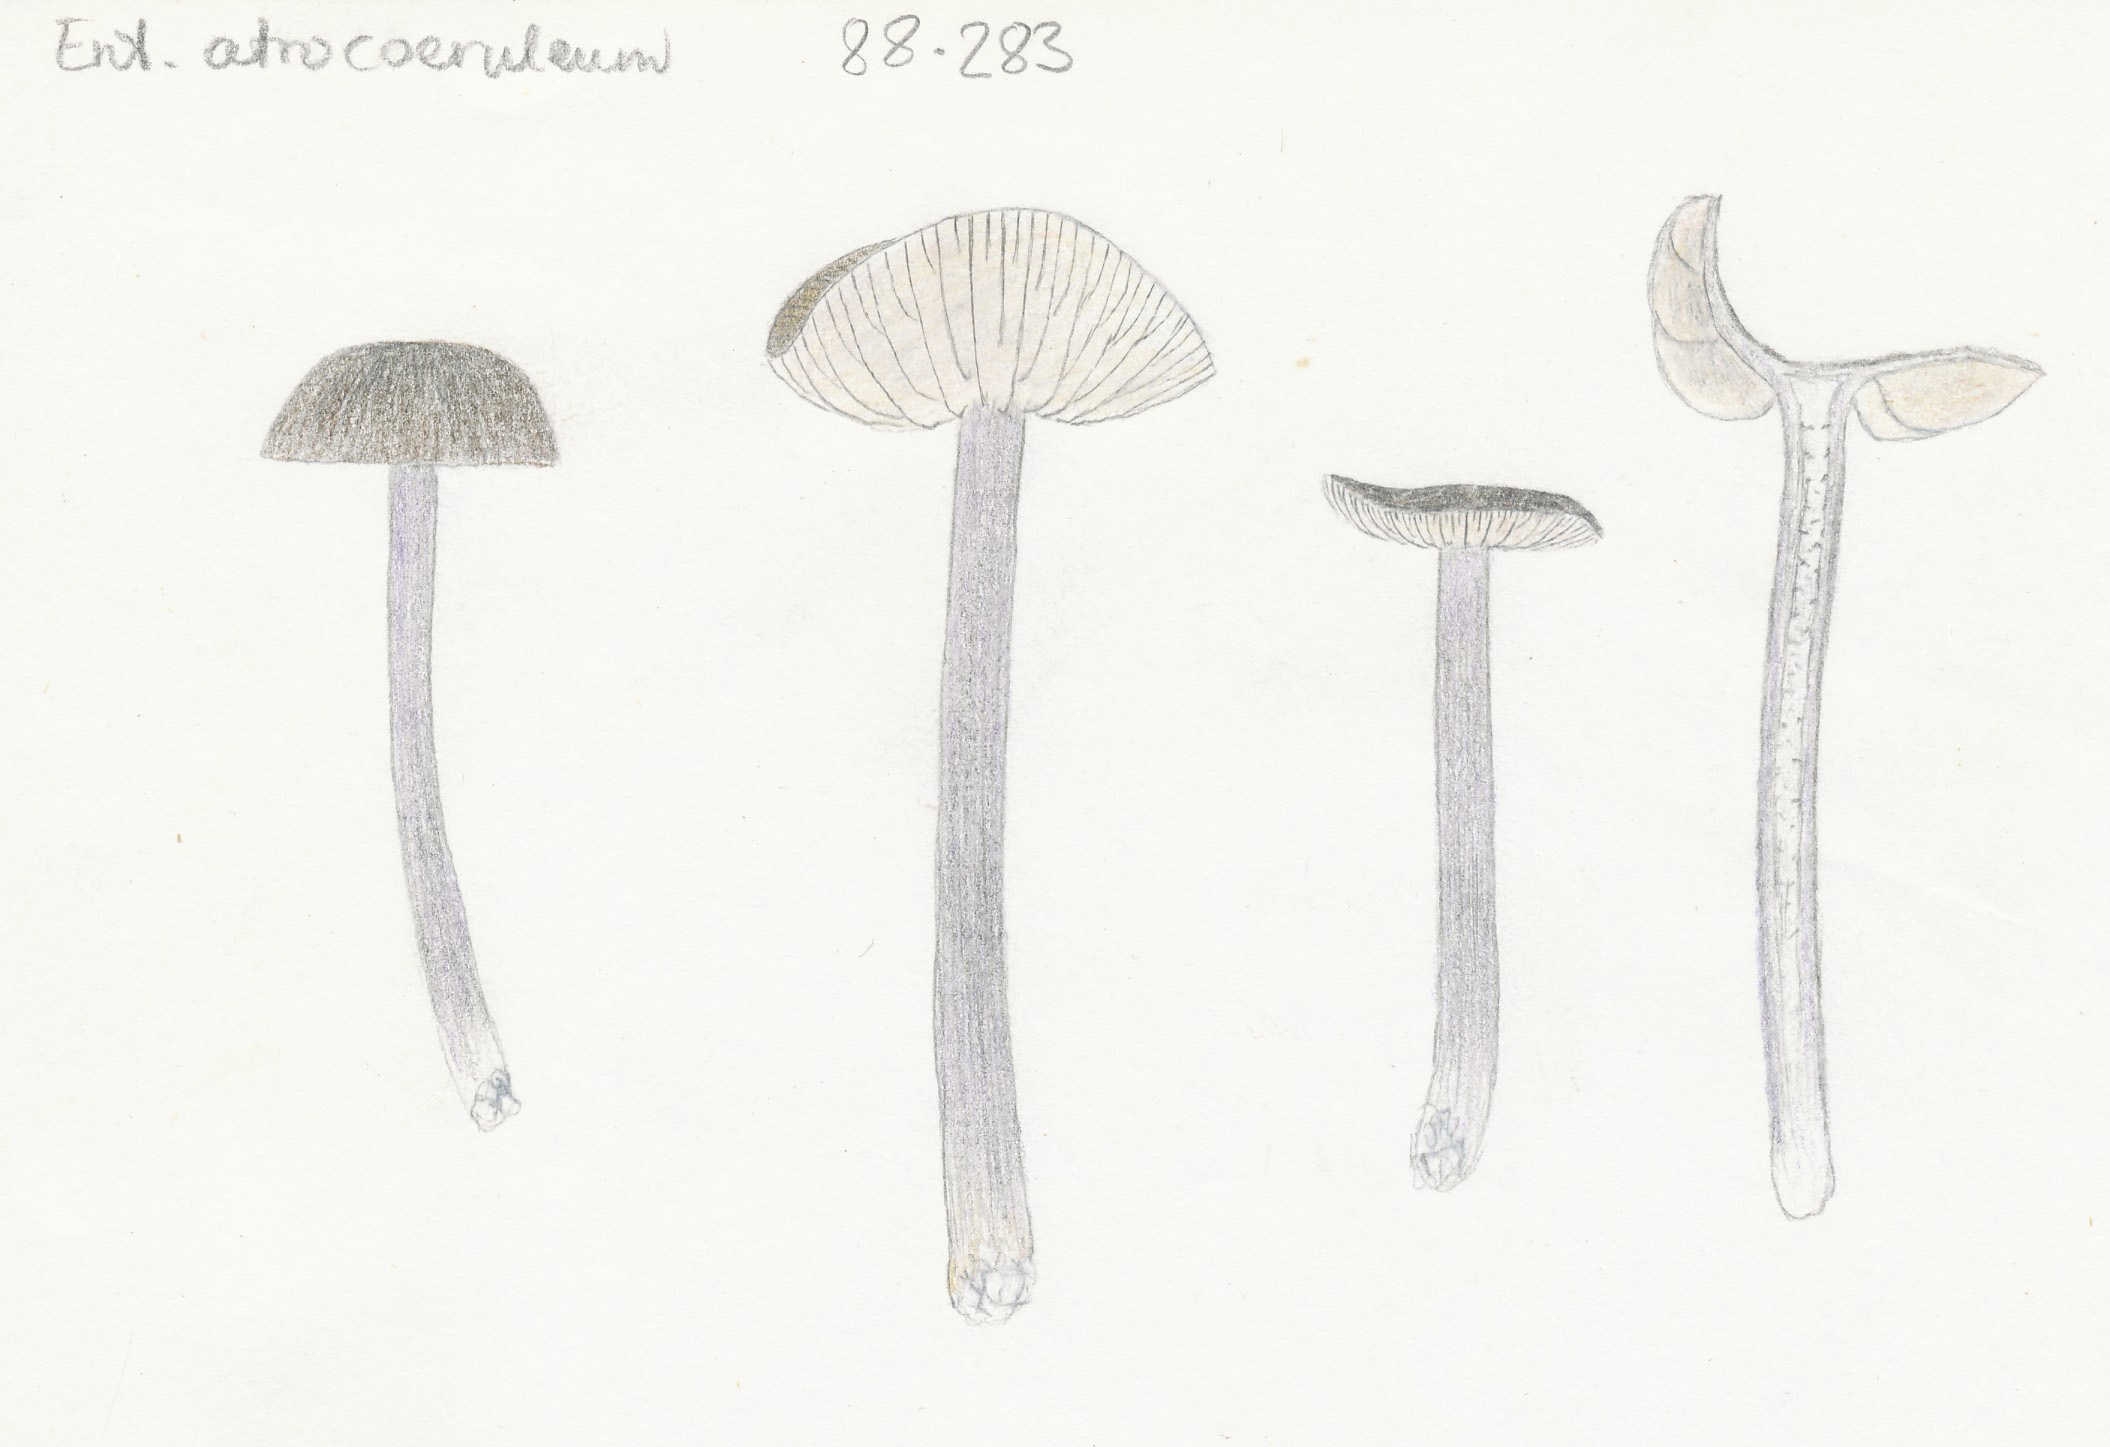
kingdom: Fungi
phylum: Basidiomycota
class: Agaricomycetes
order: Agaricales
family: Entolomataceae
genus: Entoloma
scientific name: Entoloma atrocoeruleum
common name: sortblå rødblad
